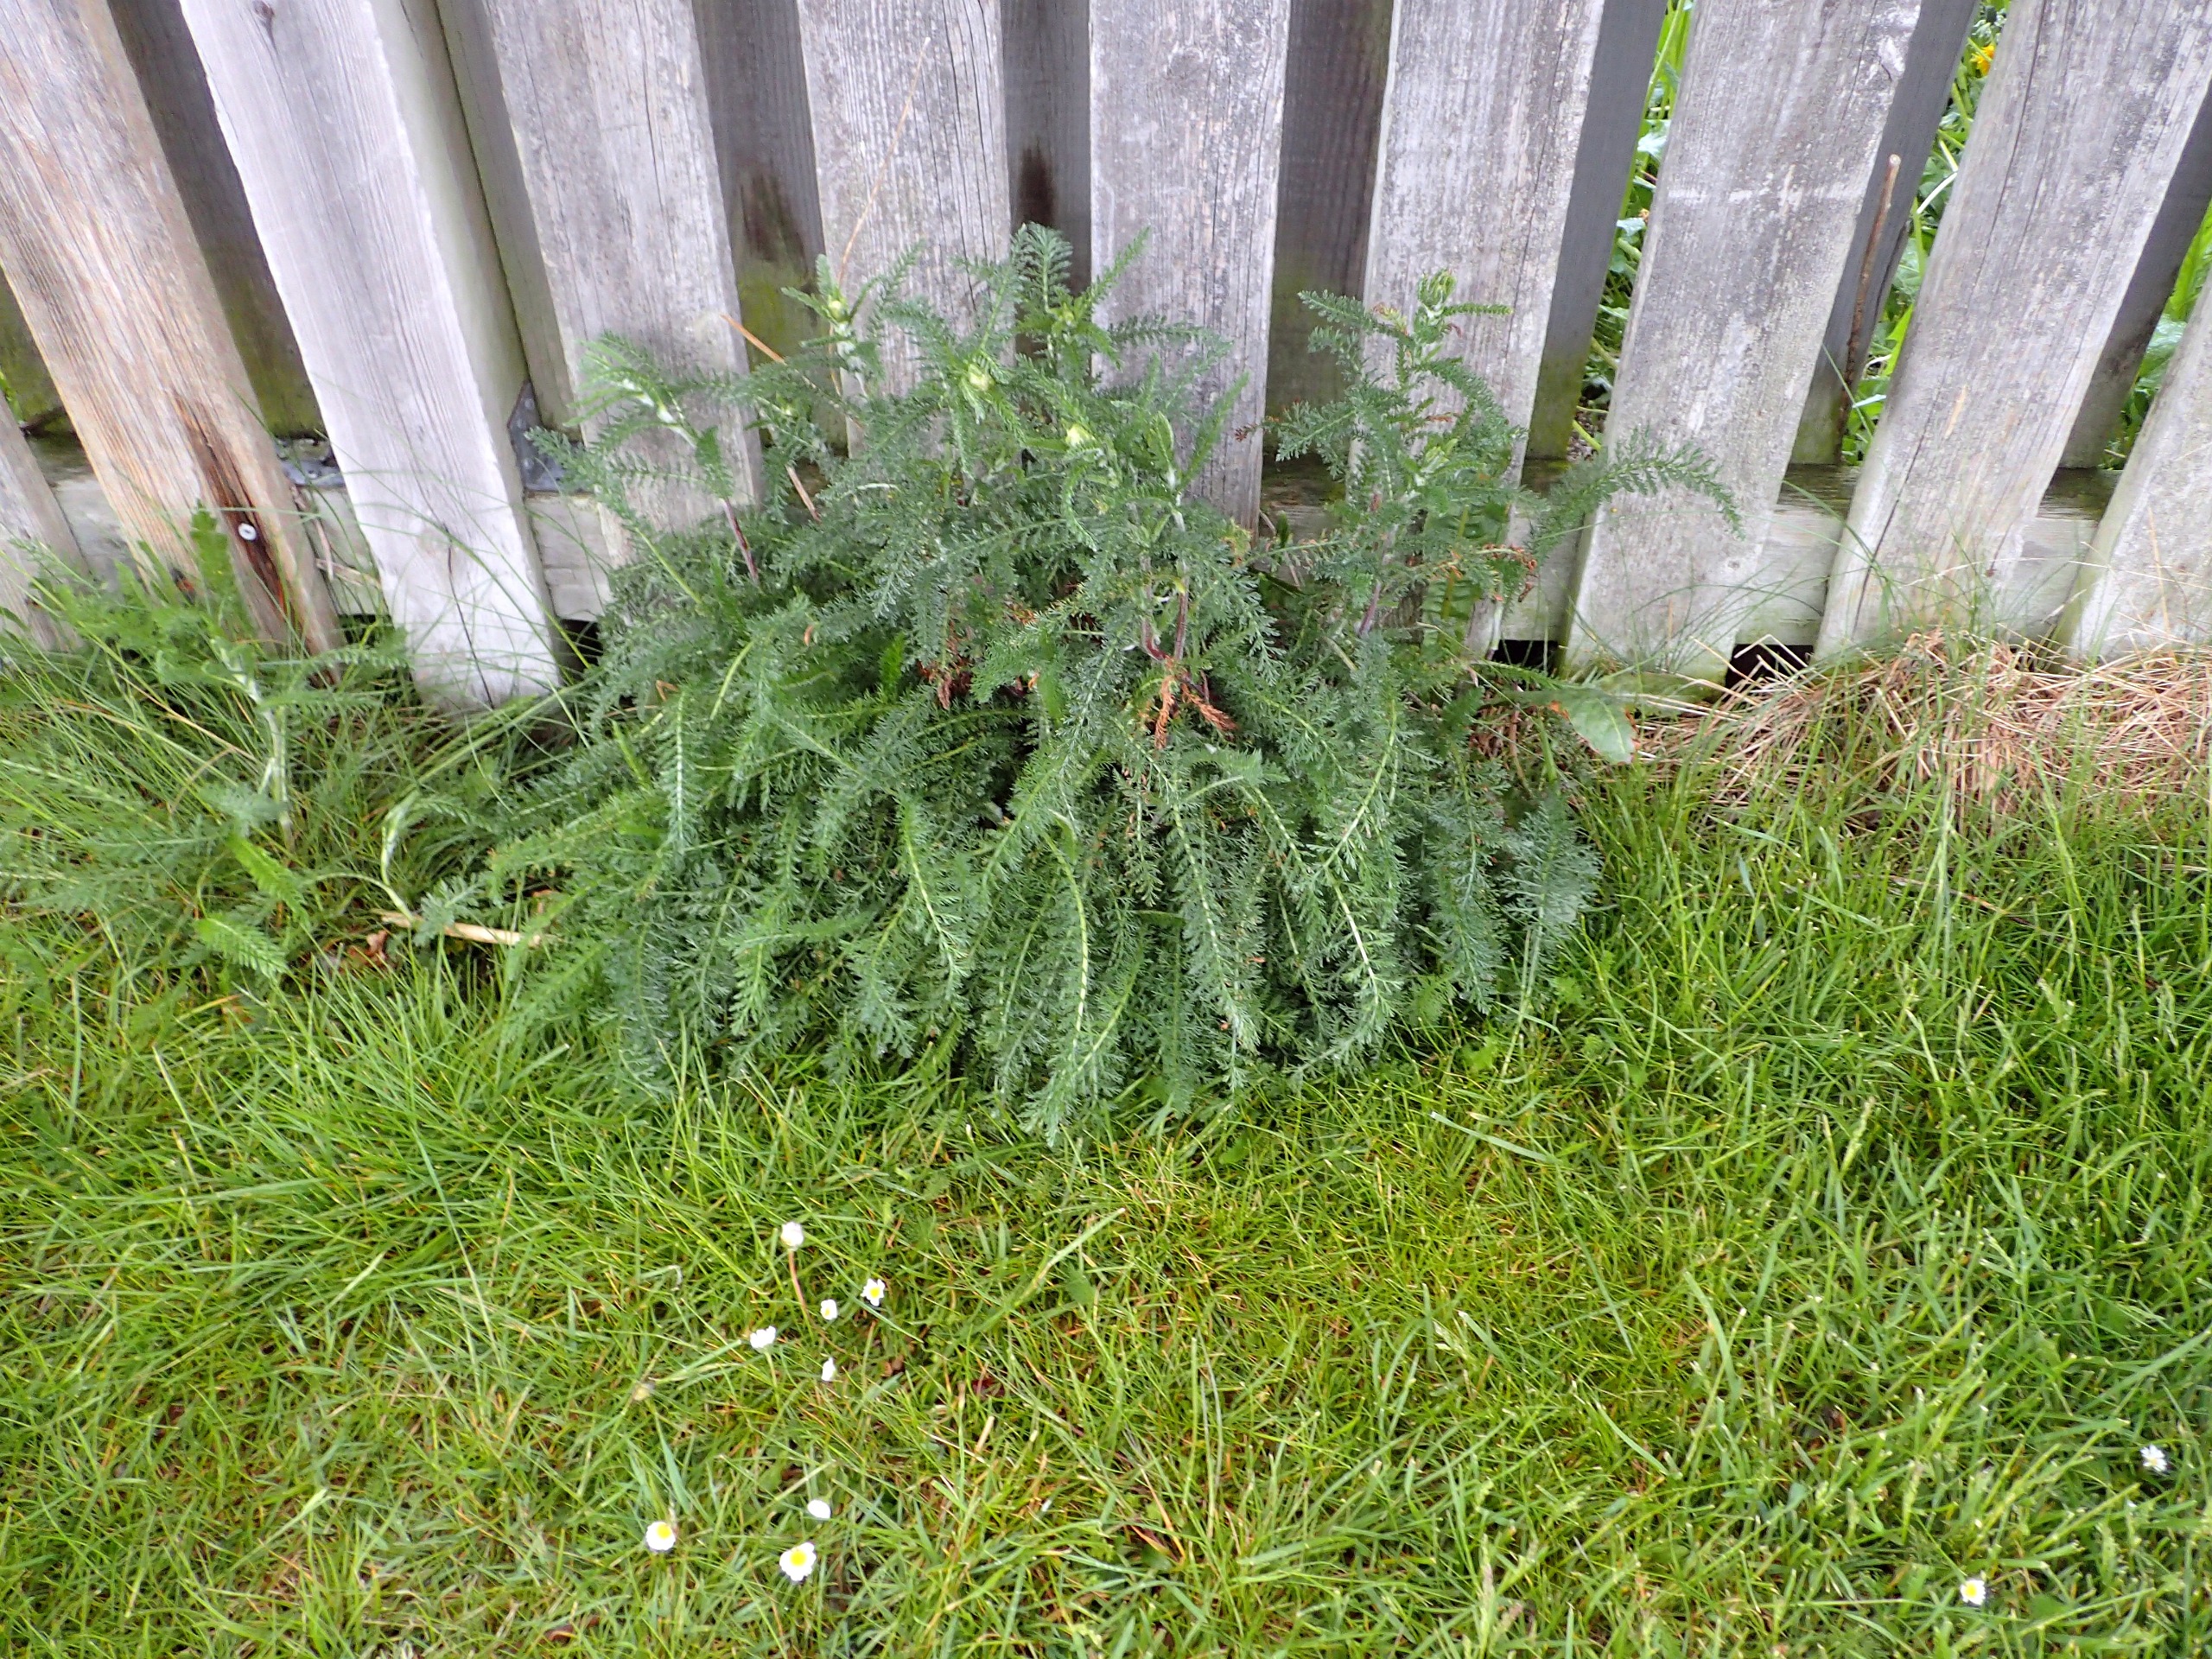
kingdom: Plantae
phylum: Tracheophyta
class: Magnoliopsida
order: Asterales
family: Asteraceae
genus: Achillea
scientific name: Achillea millefolium
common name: Almindelig røllike
